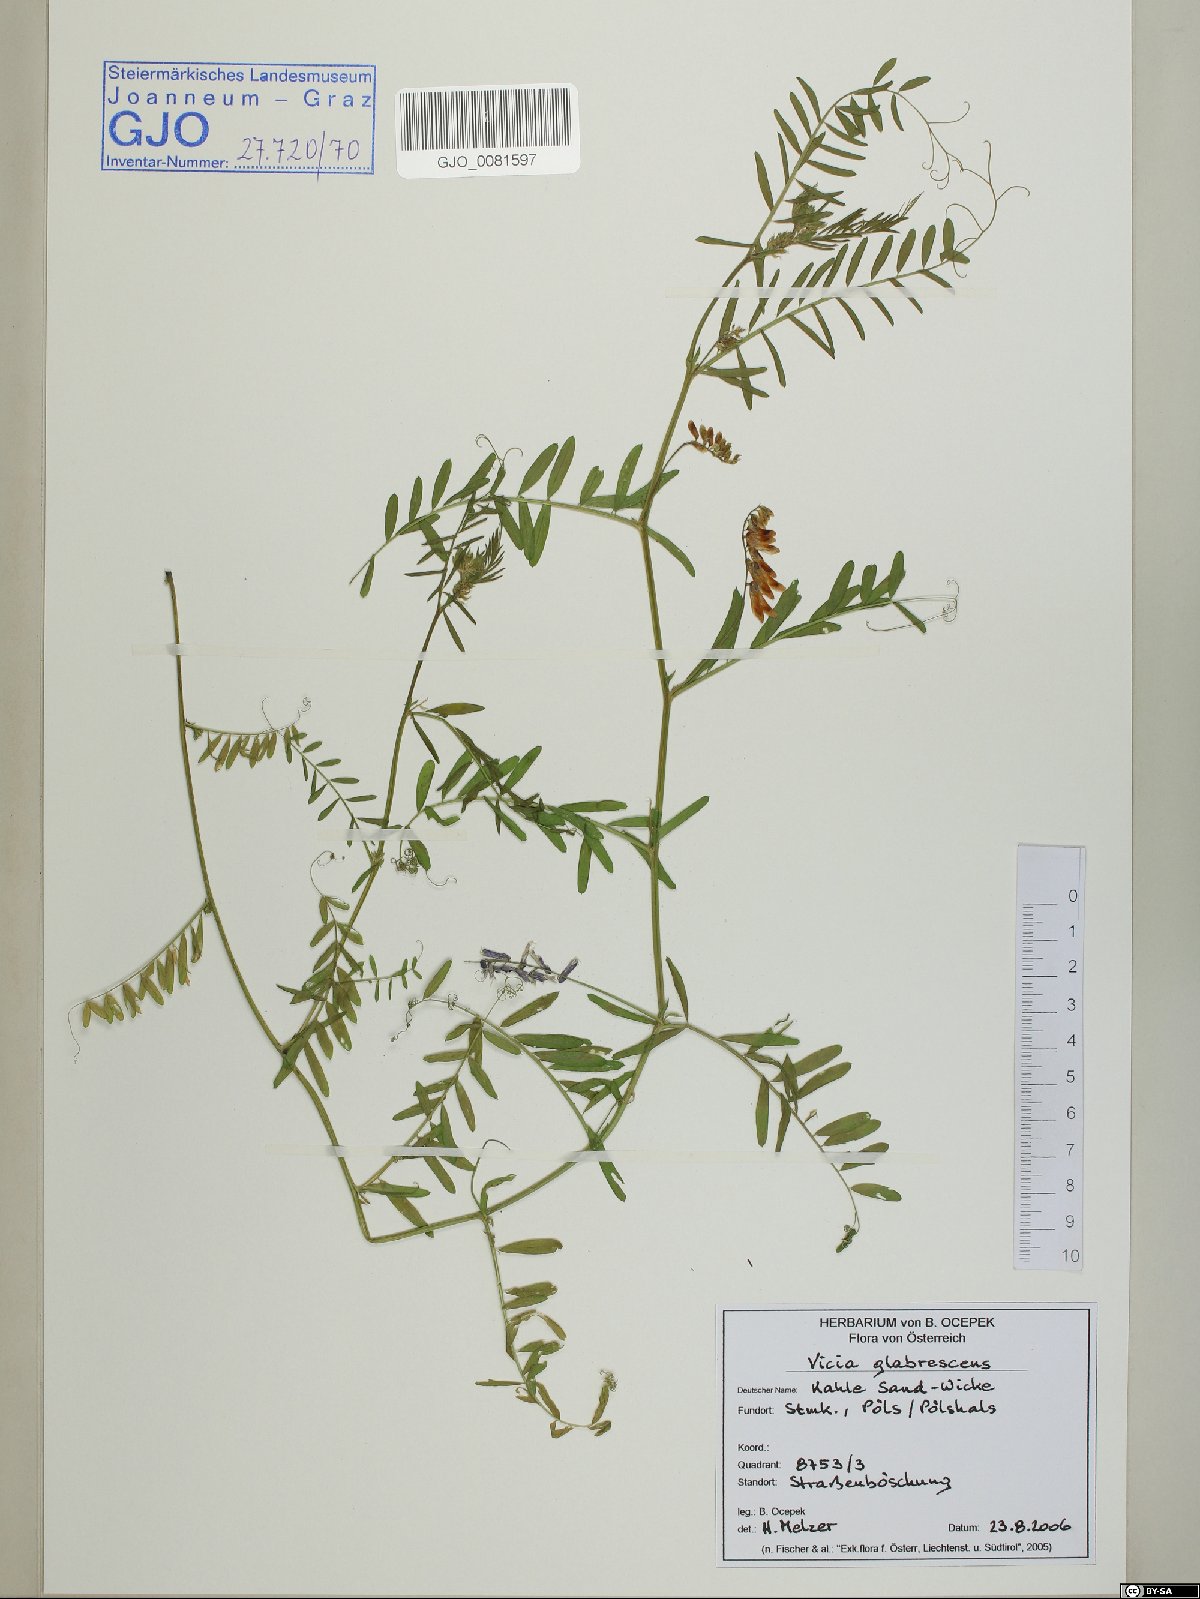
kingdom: Plantae
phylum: Tracheophyta
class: Magnoliopsida
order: Fabales
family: Fabaceae
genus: Vicia
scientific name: Vicia villosa
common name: Fodder vetch
